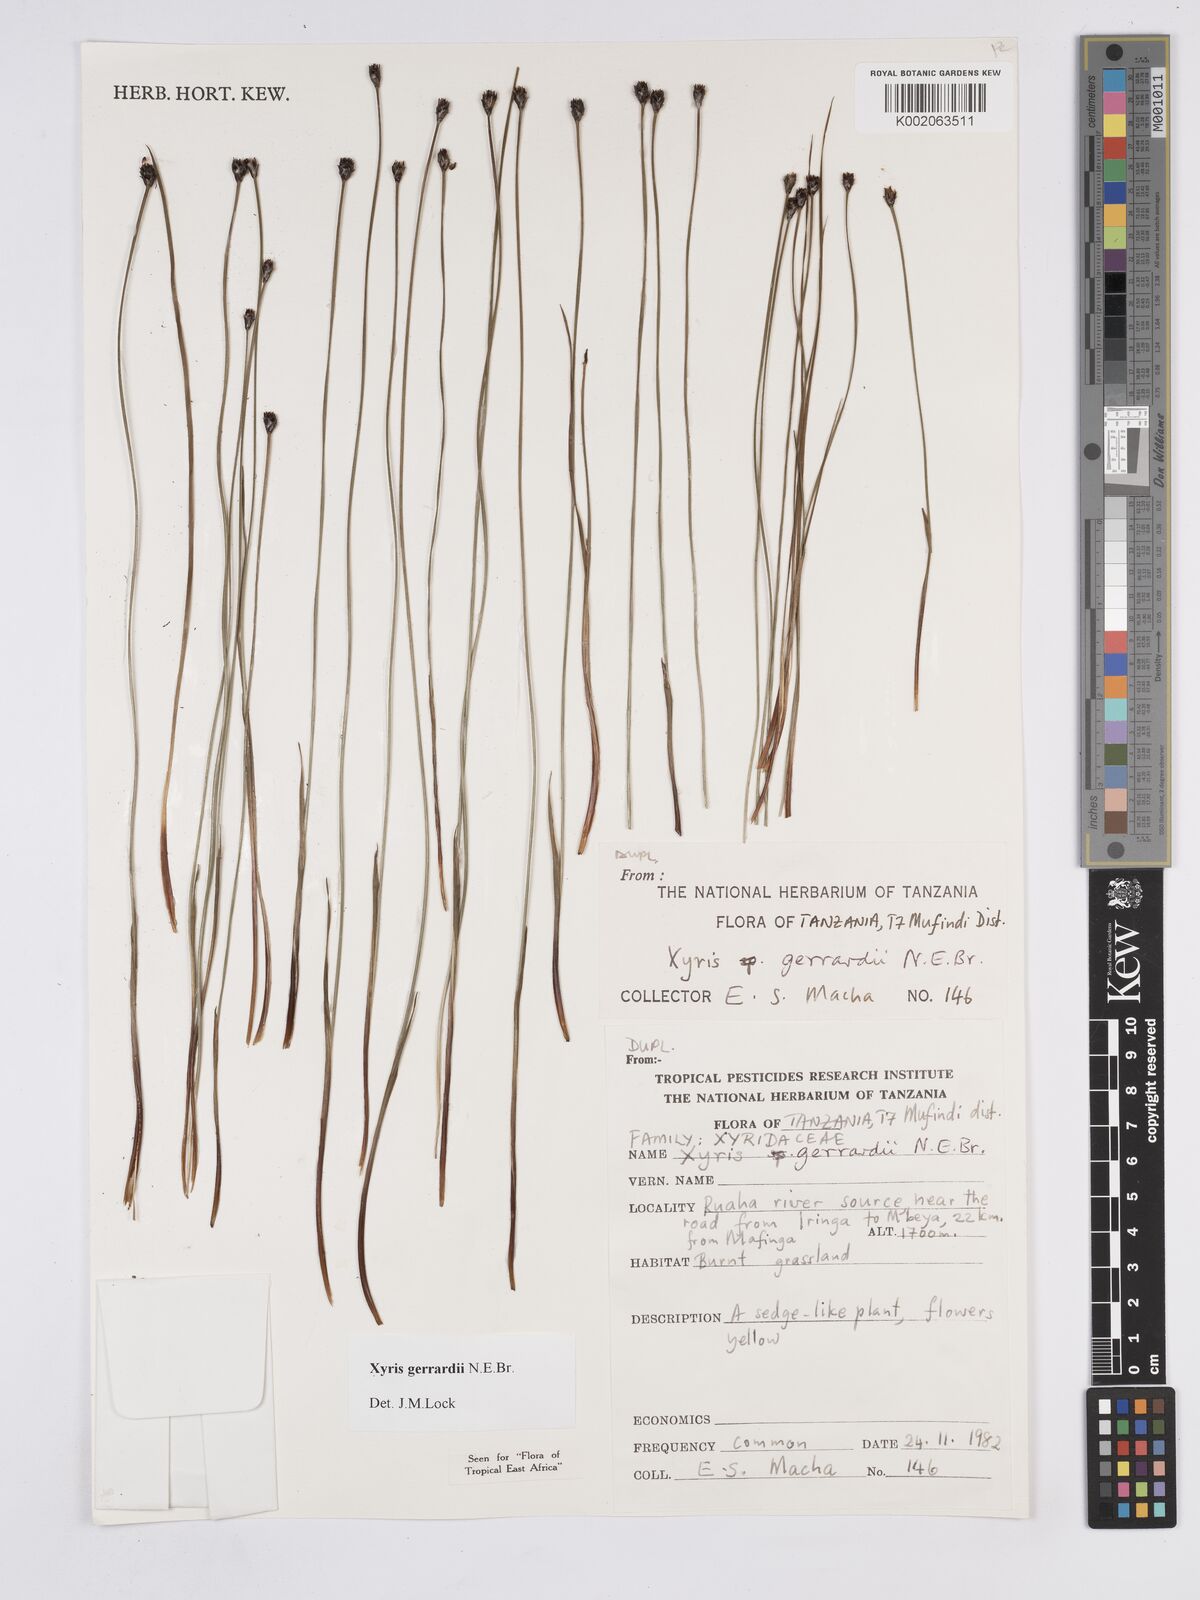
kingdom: Plantae
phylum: Tracheophyta
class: Liliopsida
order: Poales
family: Xyridaceae
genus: Xyris
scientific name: Xyris gerrardii
